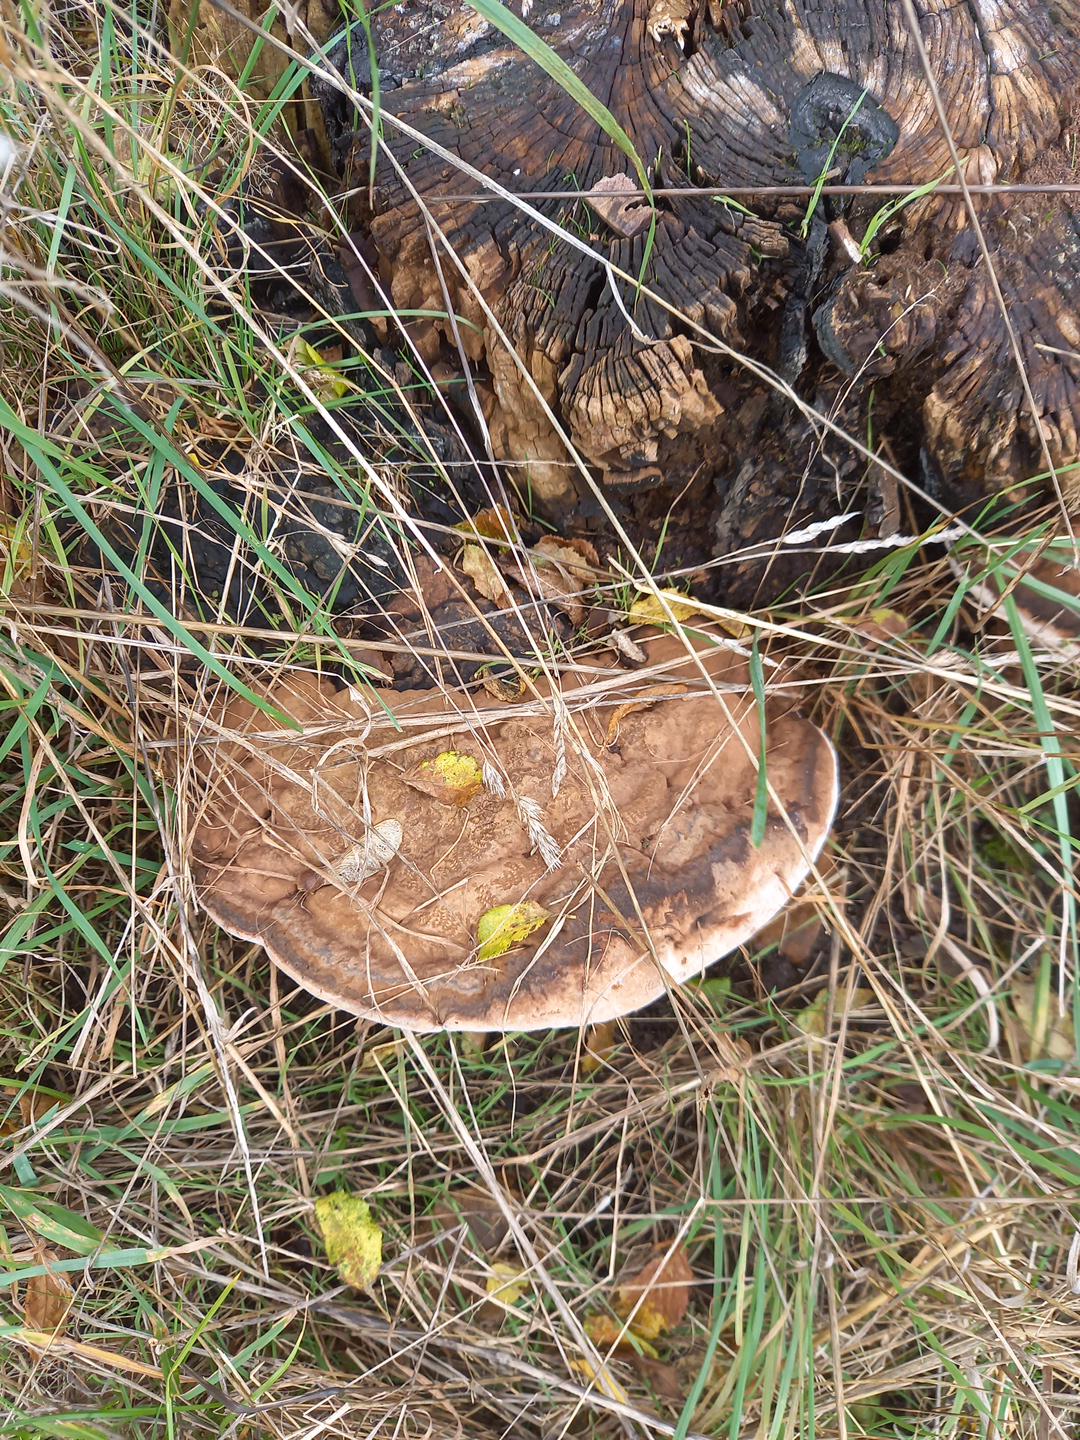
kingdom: Fungi
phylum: Basidiomycota
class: Agaricomycetes
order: Polyporales
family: Polyporaceae
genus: Ganoderma
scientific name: Ganoderma applanatum
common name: flad lakporesvamp
